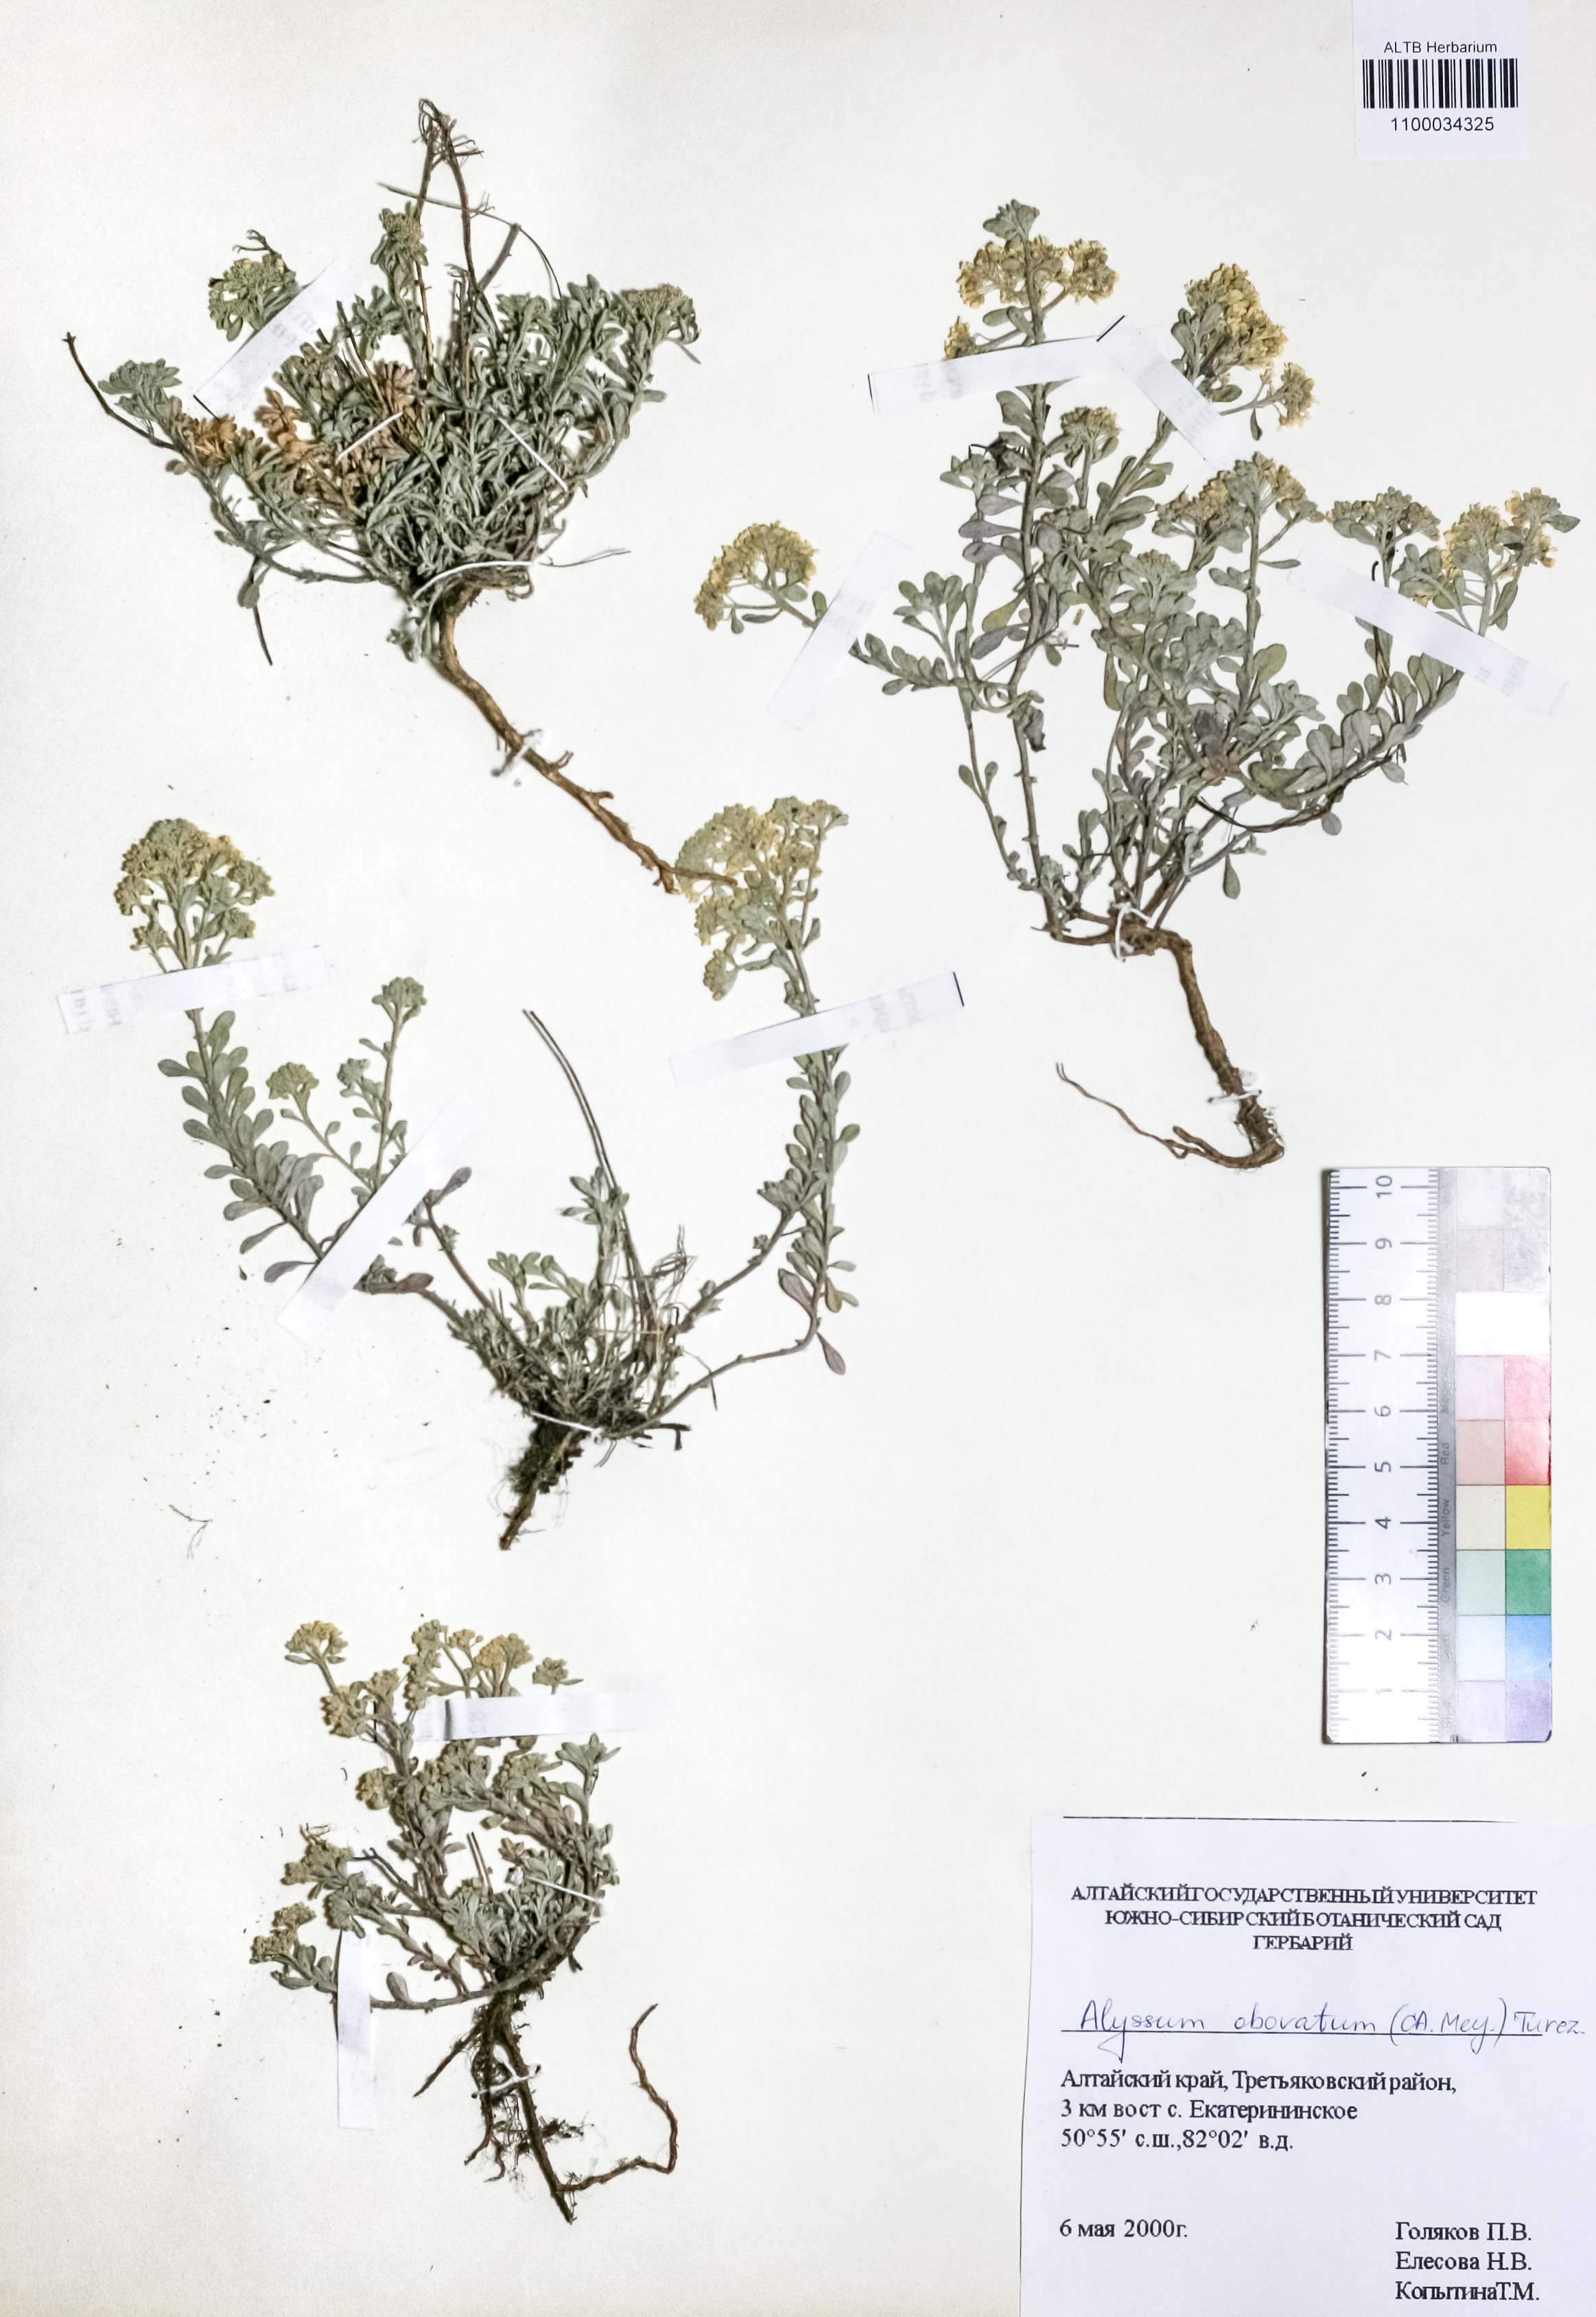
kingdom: Plantae
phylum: Tracheophyta
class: Magnoliopsida
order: Brassicales
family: Brassicaceae
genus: Odontarrhena
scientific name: Odontarrhena obovata
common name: American alyssum
